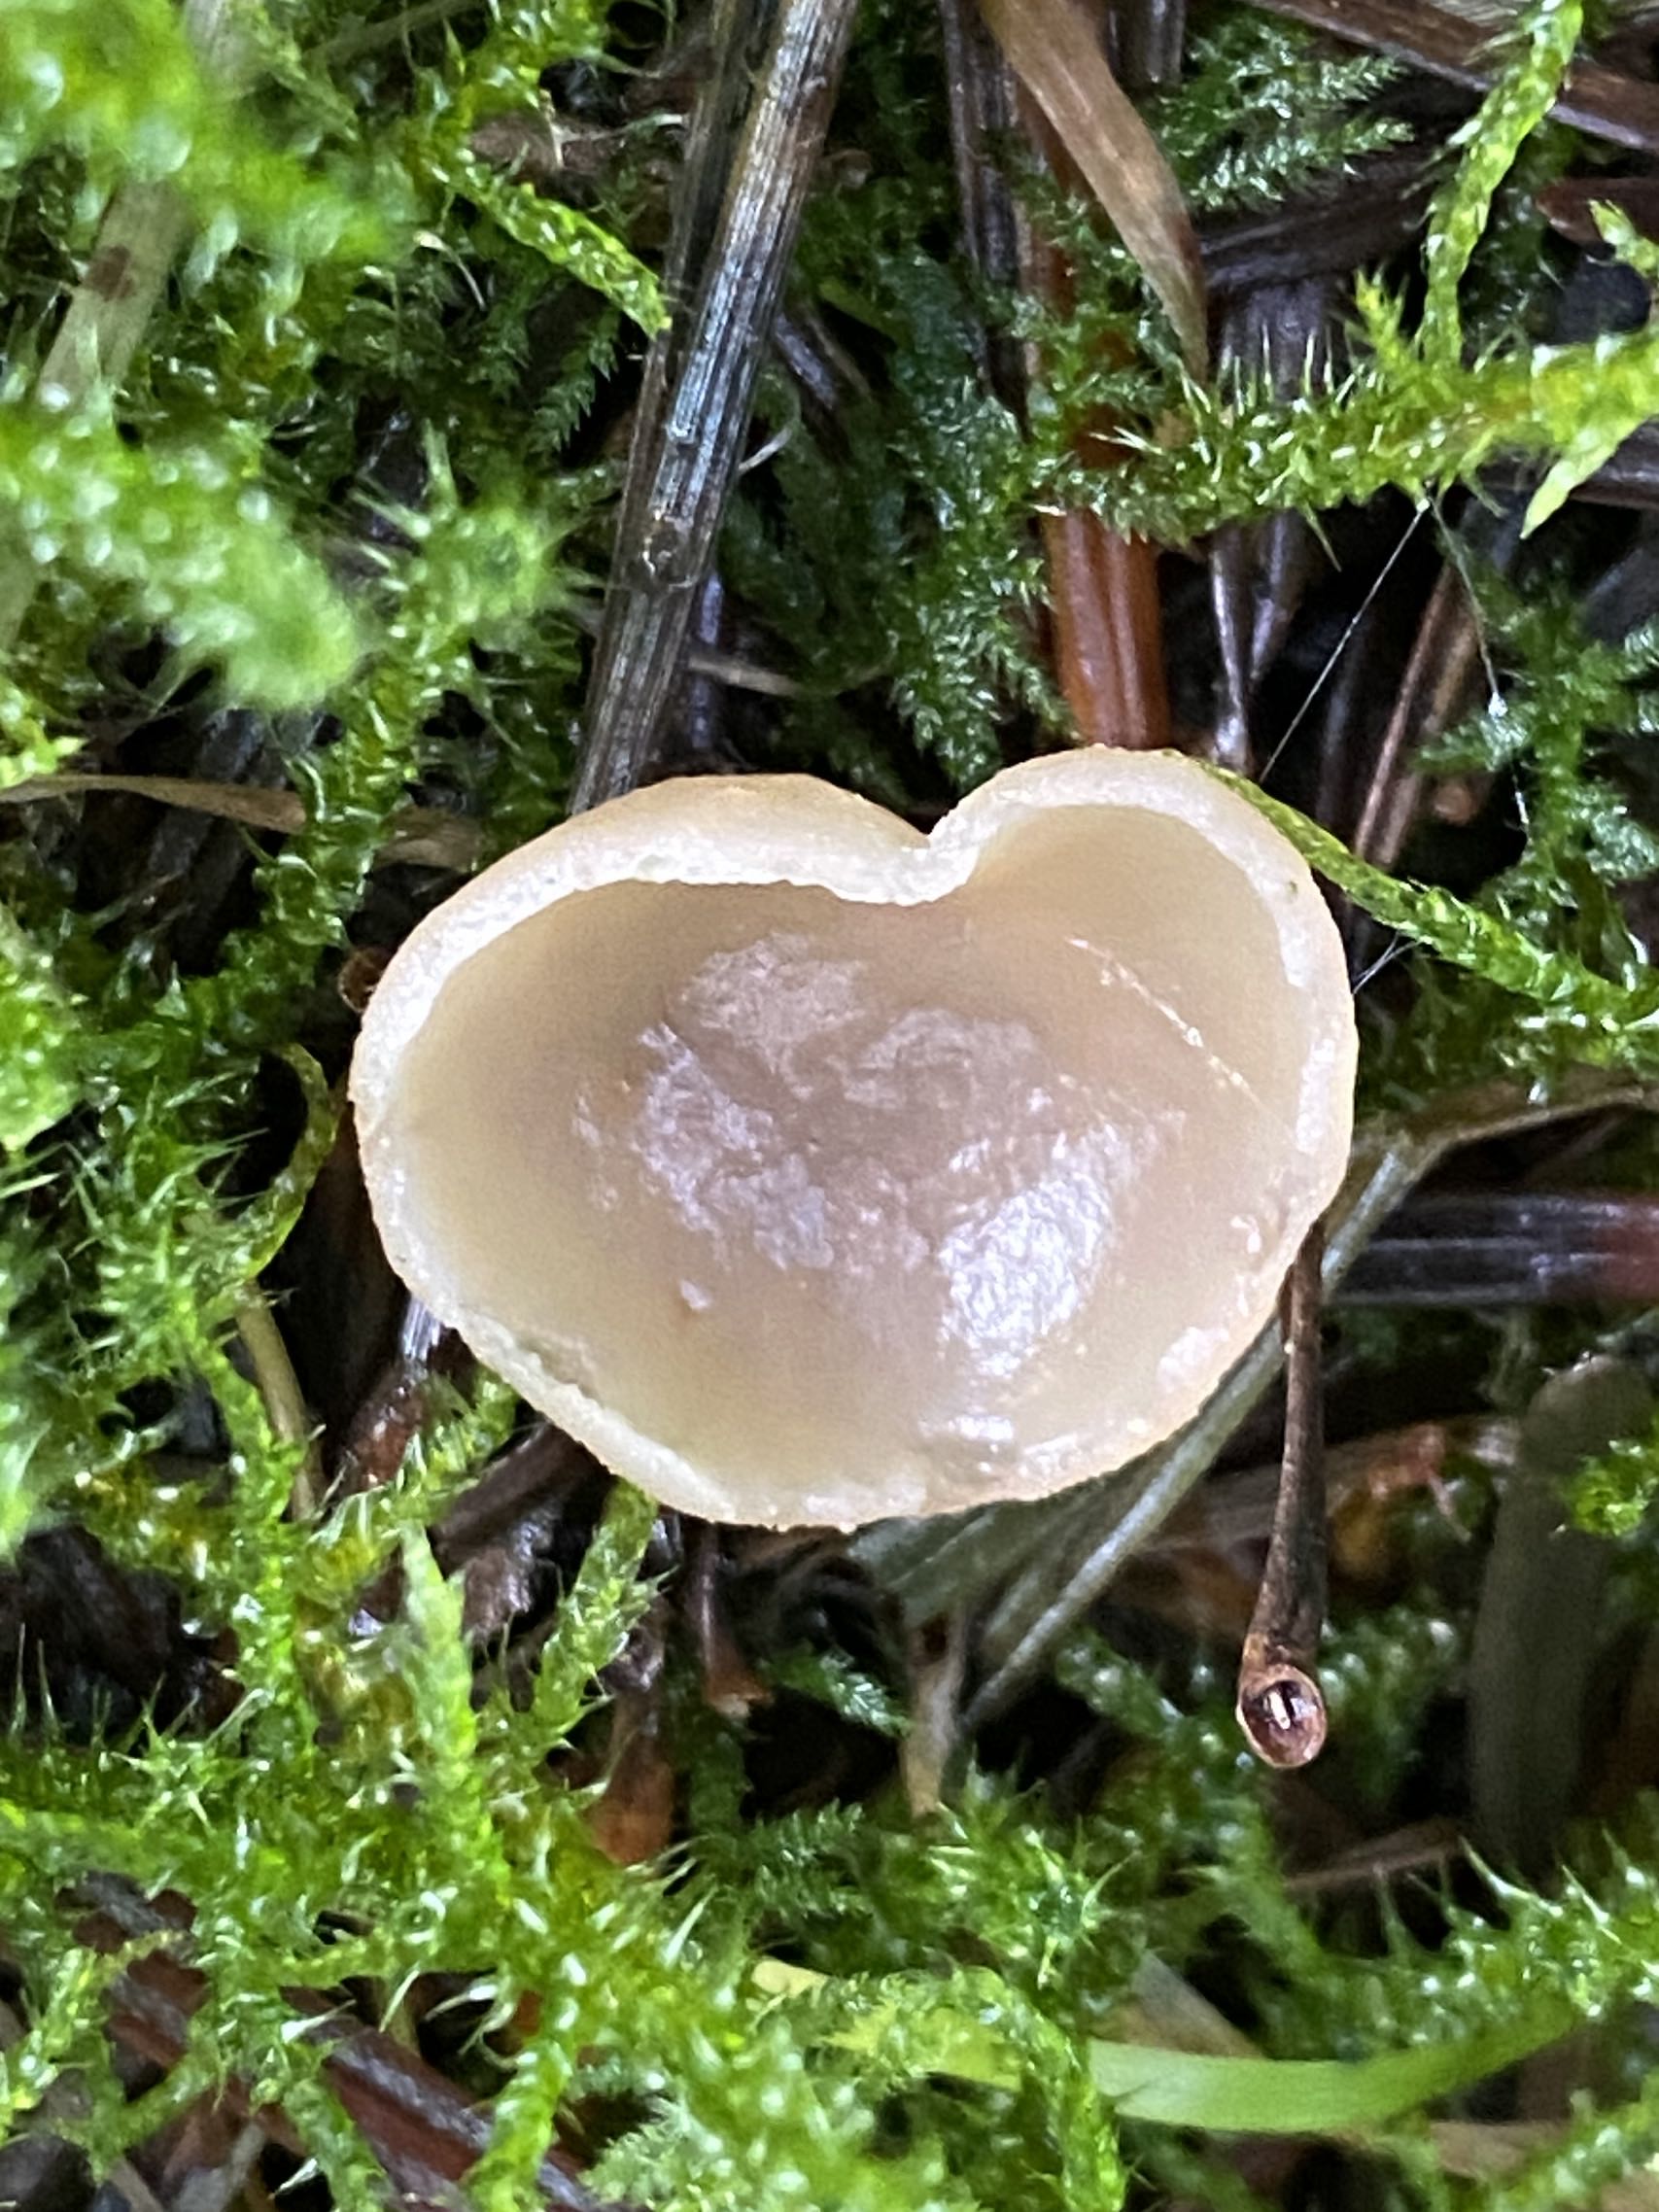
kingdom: Fungi
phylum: Ascomycota
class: Pezizomycetes
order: Pezizales
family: Pezizaceae
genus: Peziza
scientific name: Peziza
